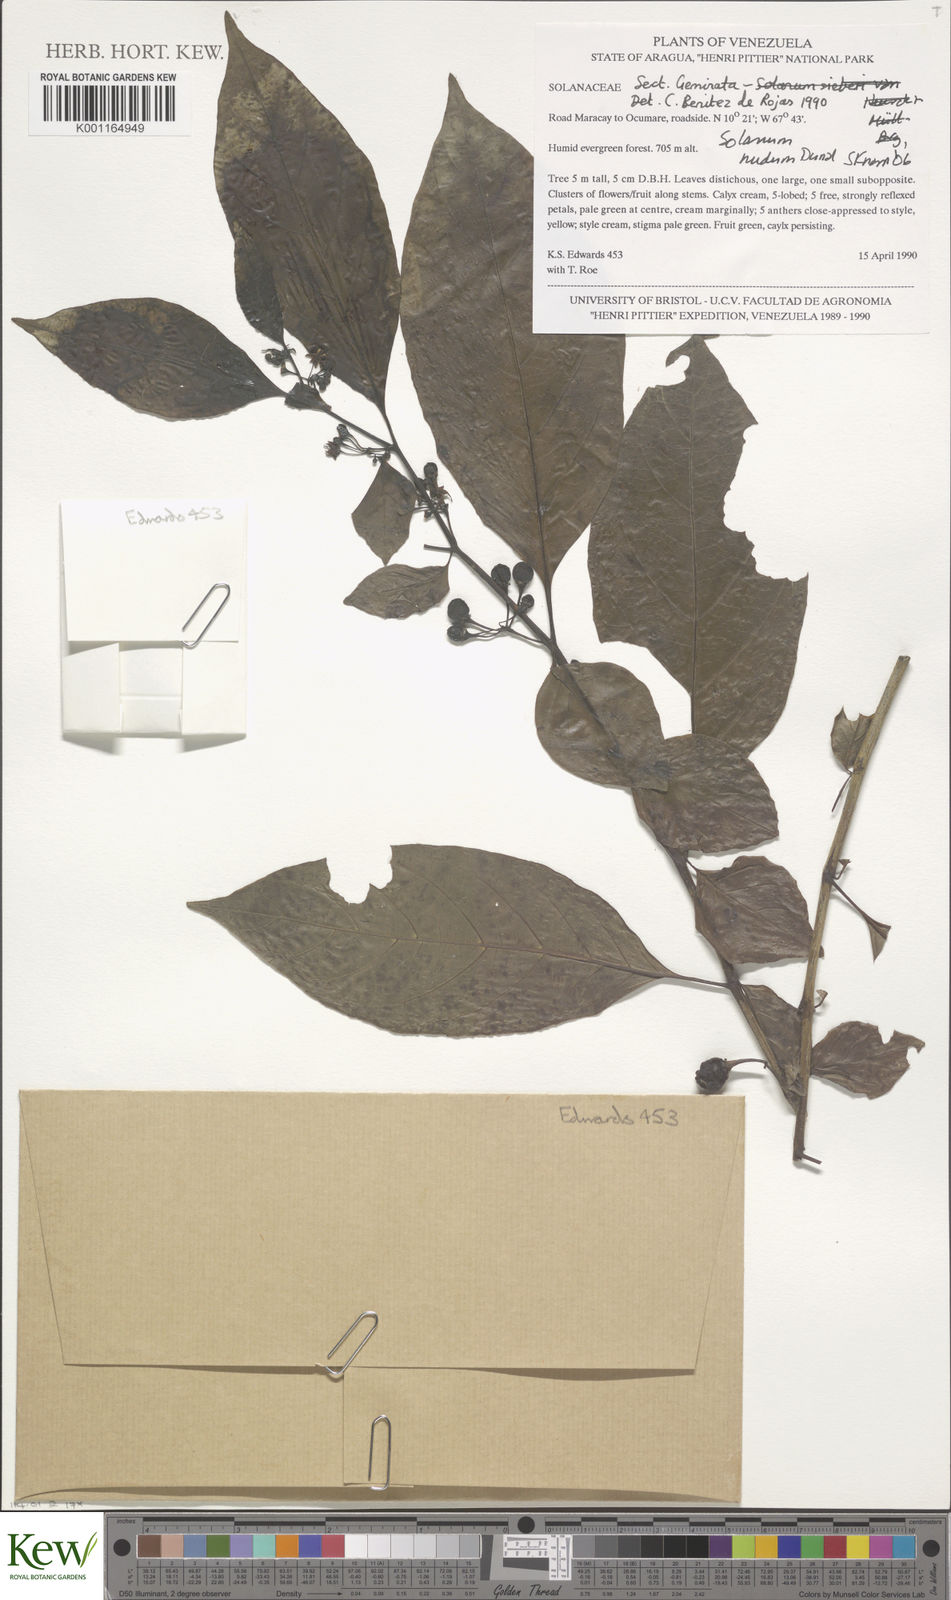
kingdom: Plantae
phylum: Tracheophyta
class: Magnoliopsida
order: Solanales
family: Solanaceae
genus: Solanum
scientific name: Solanum nudum
